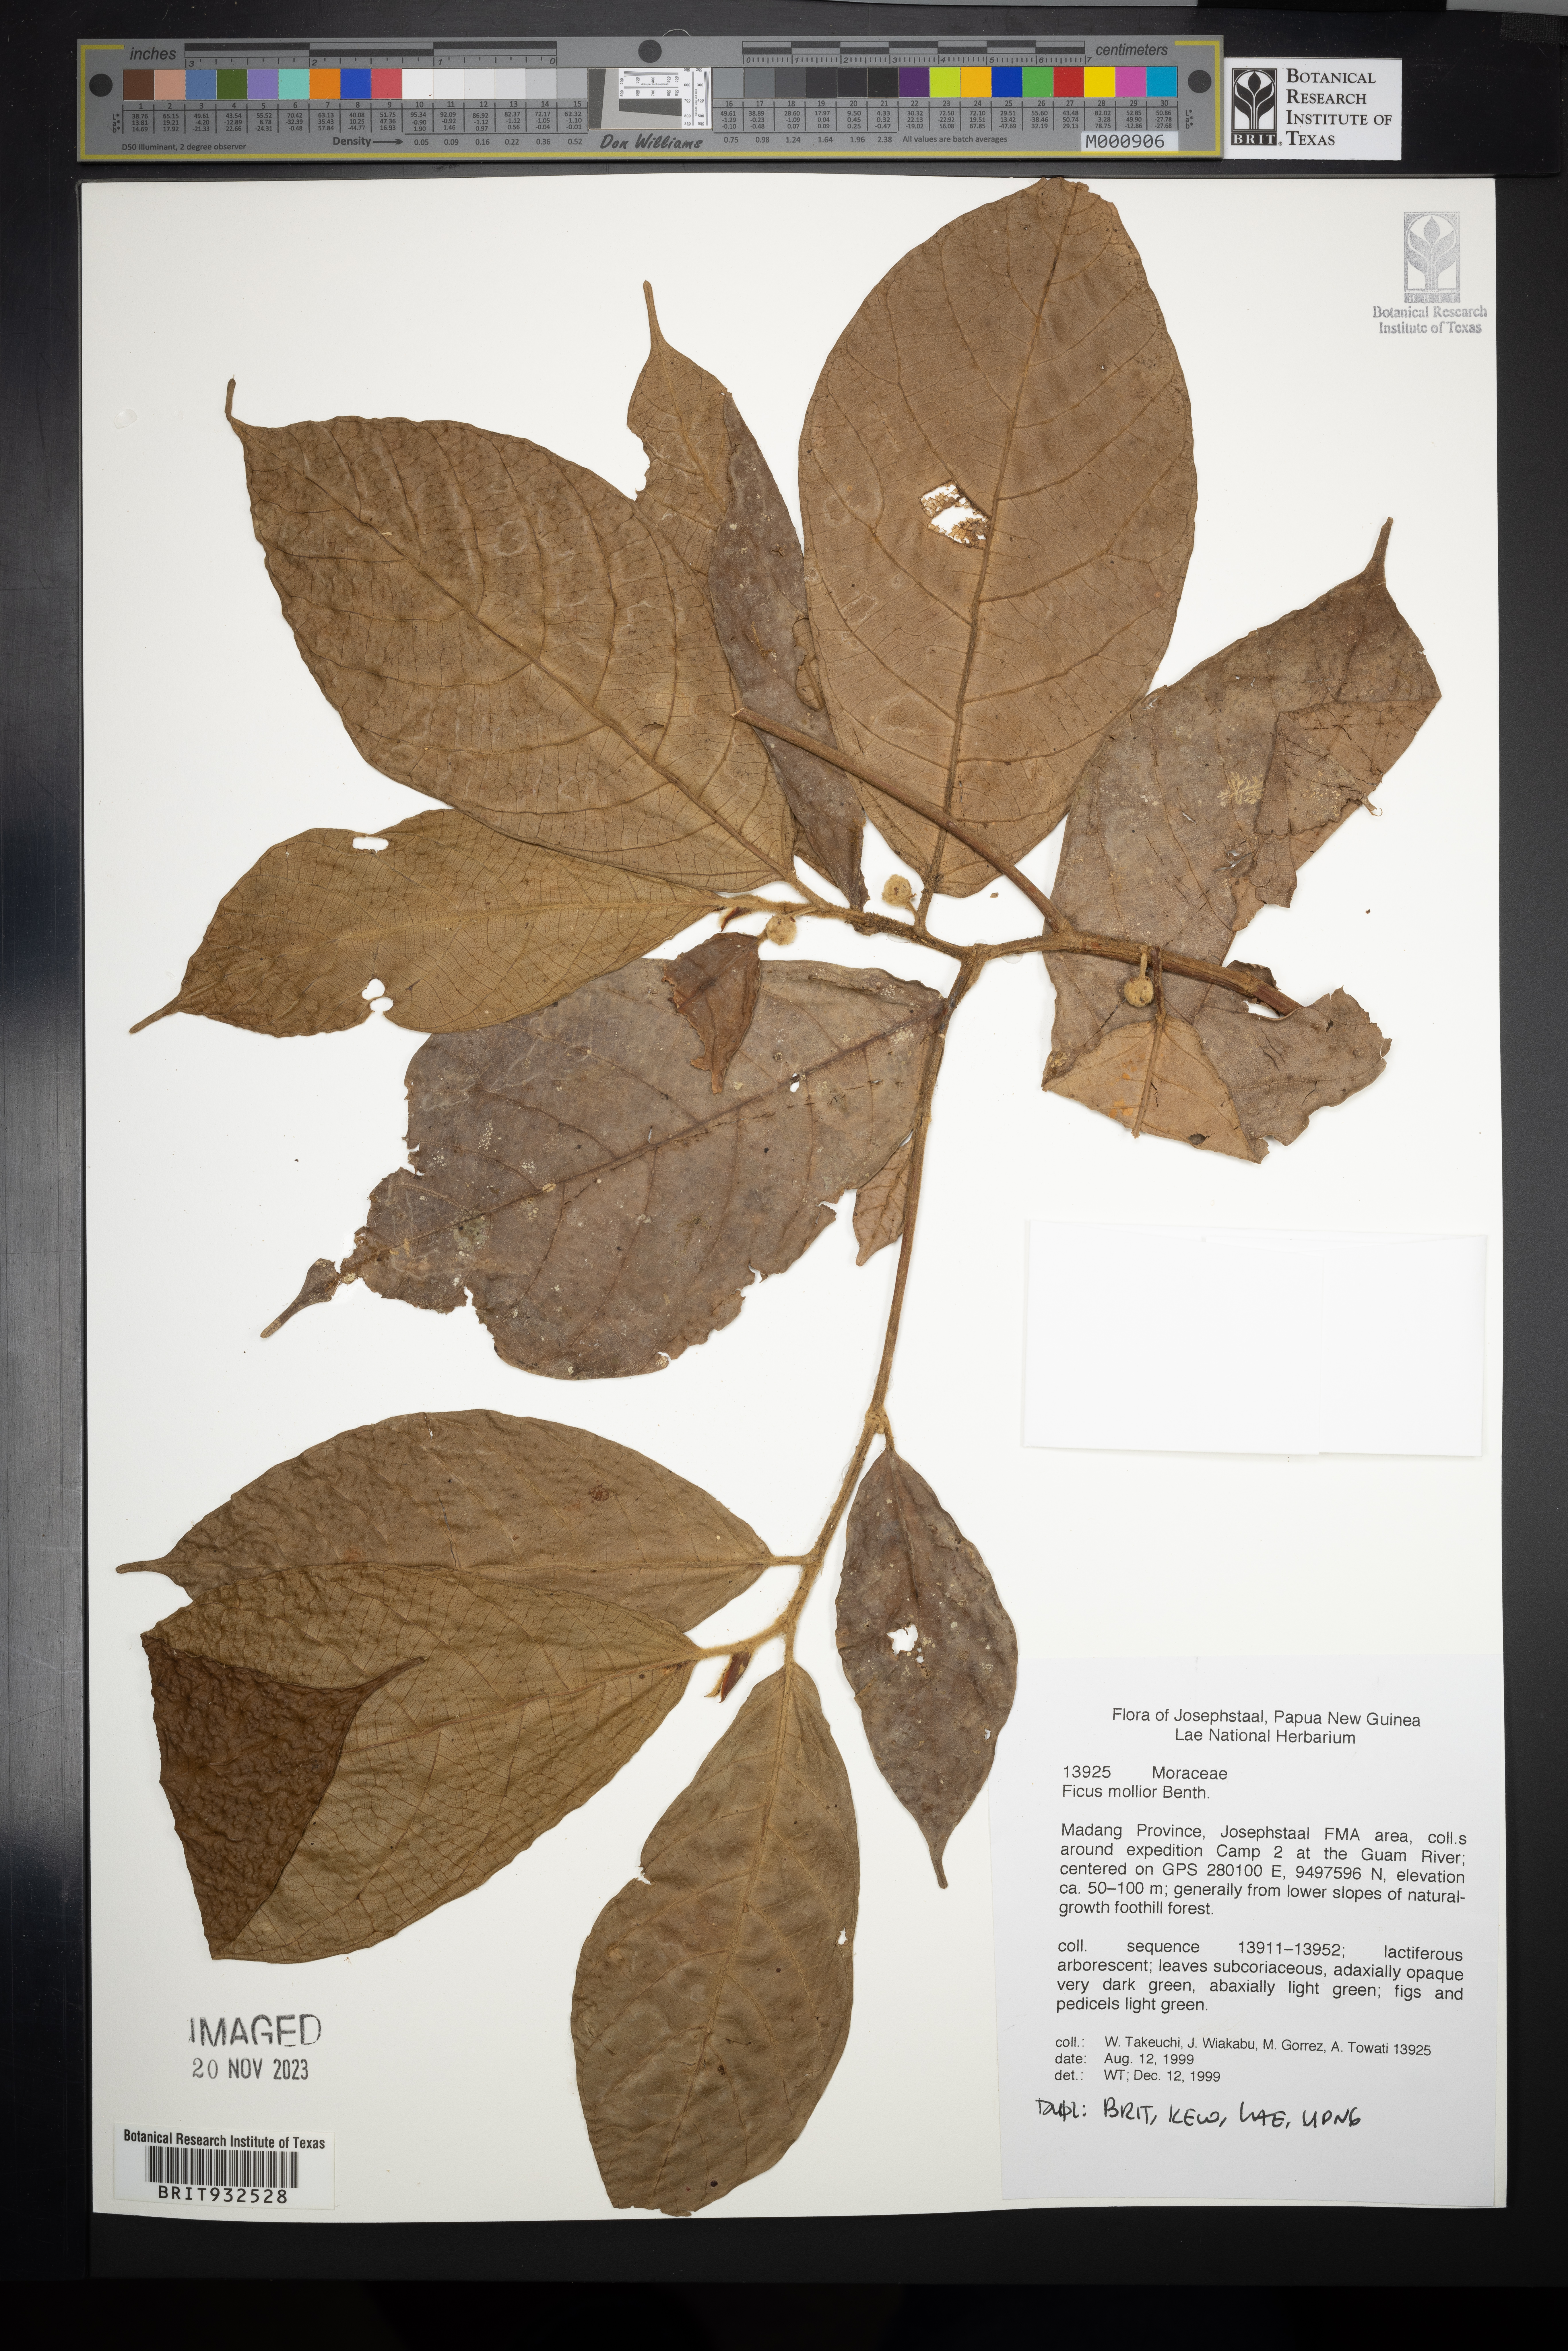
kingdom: Plantae
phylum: Tracheophyta
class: Magnoliopsida
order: Rosales
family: Moraceae
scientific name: Moraceae
